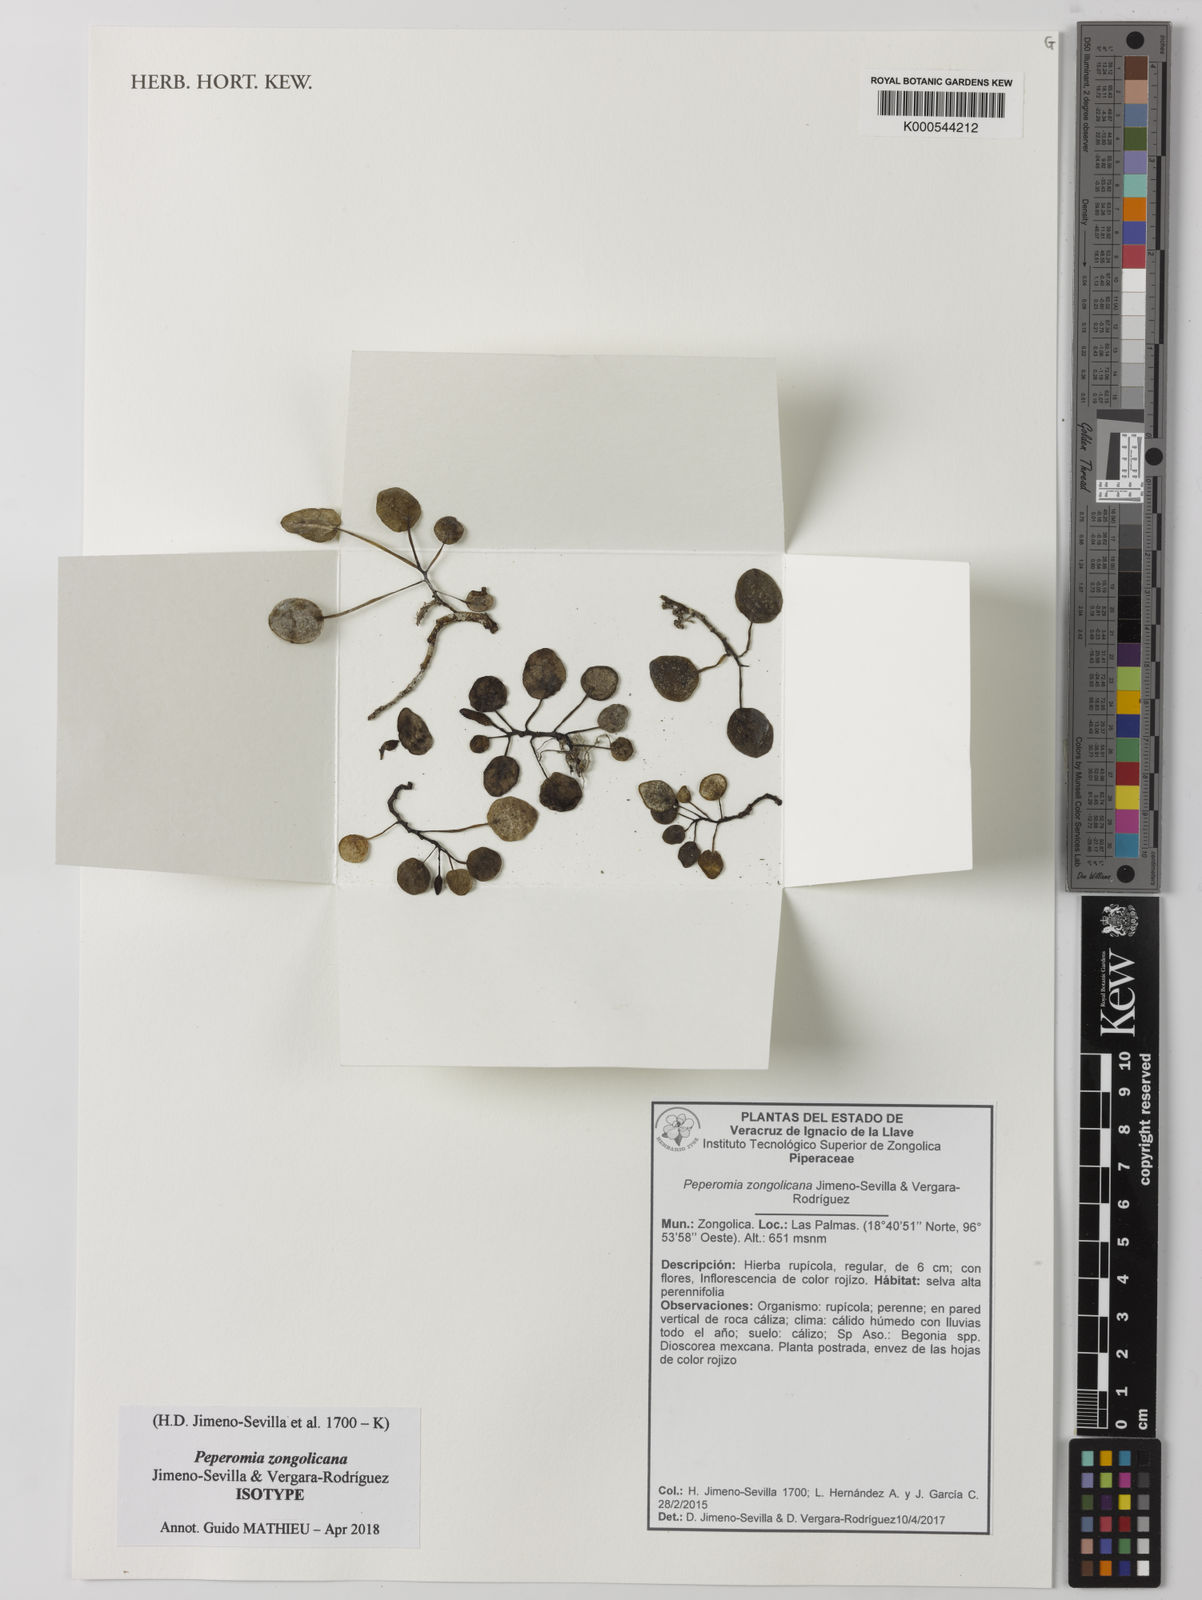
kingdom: Plantae
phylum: Tracheophyta
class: Magnoliopsida
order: Piperales
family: Piperaceae
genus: Peperomia
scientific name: Peperomia zongolicana
